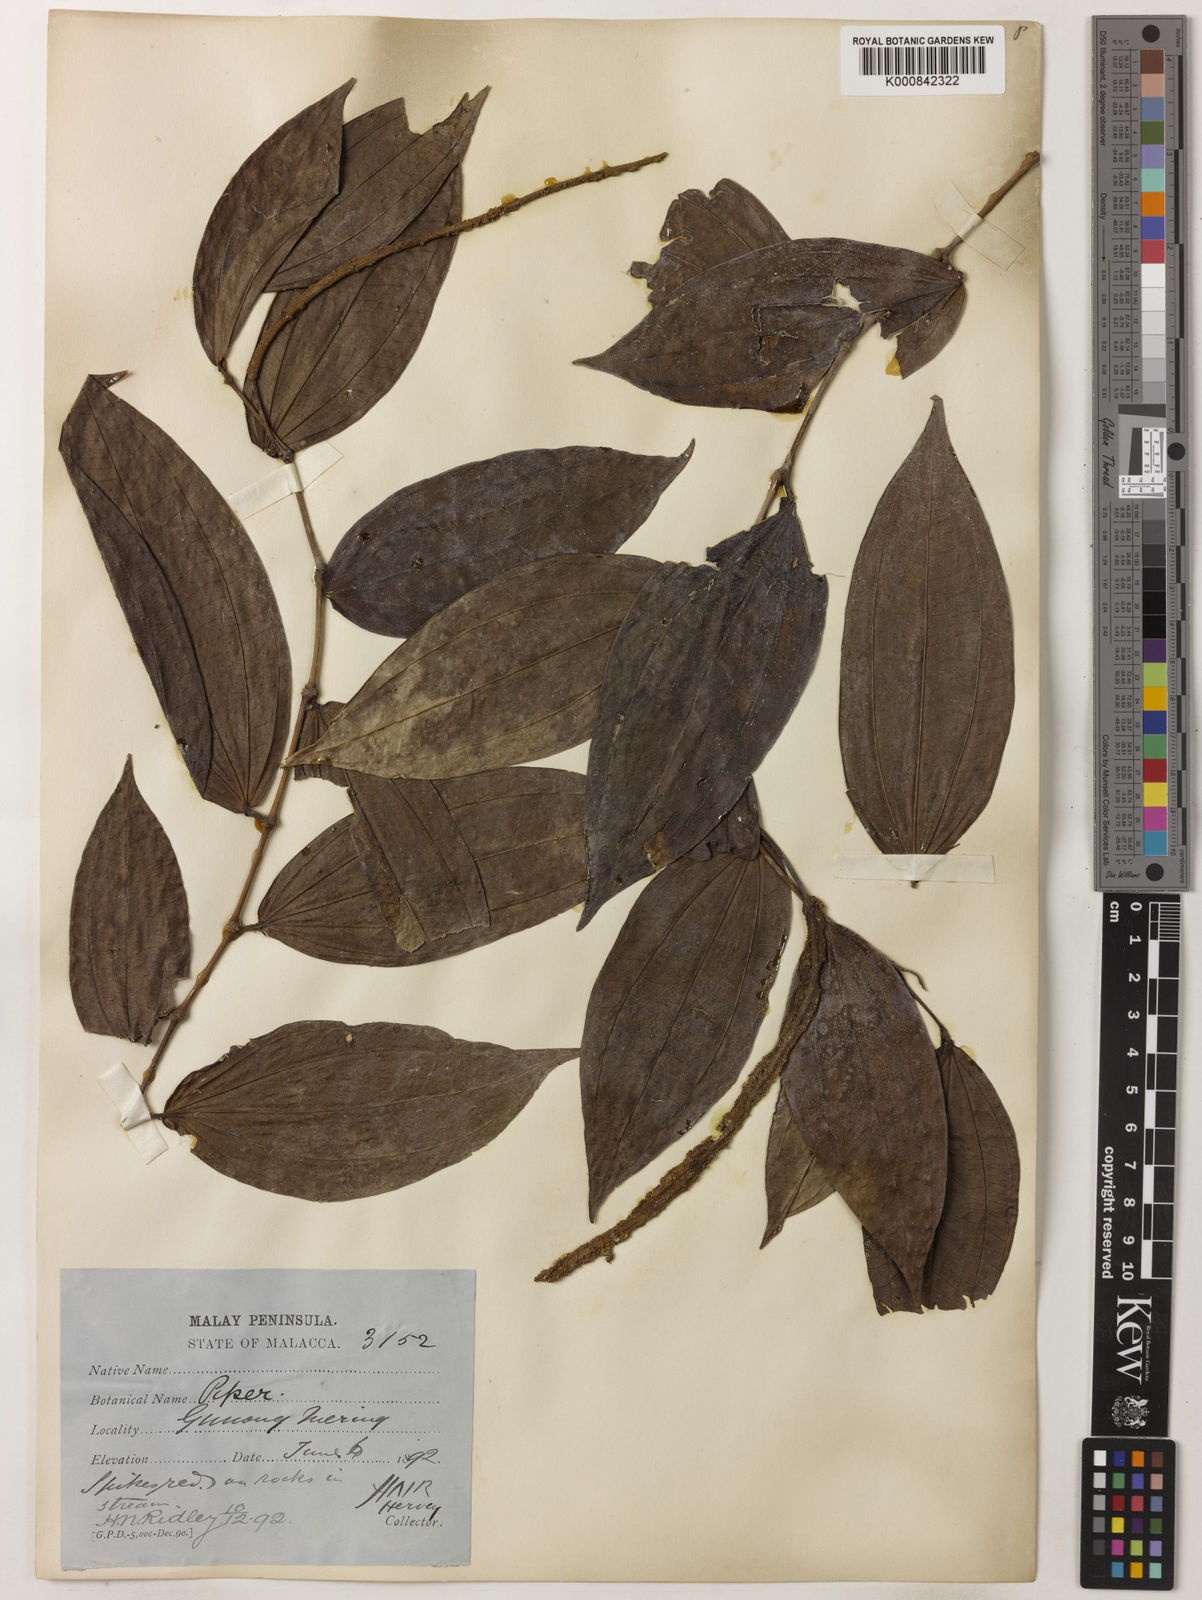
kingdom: Plantae
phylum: Tracheophyta
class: Magnoliopsida
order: Piperales
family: Piperaceae
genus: Piper
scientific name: Piper macropiper
